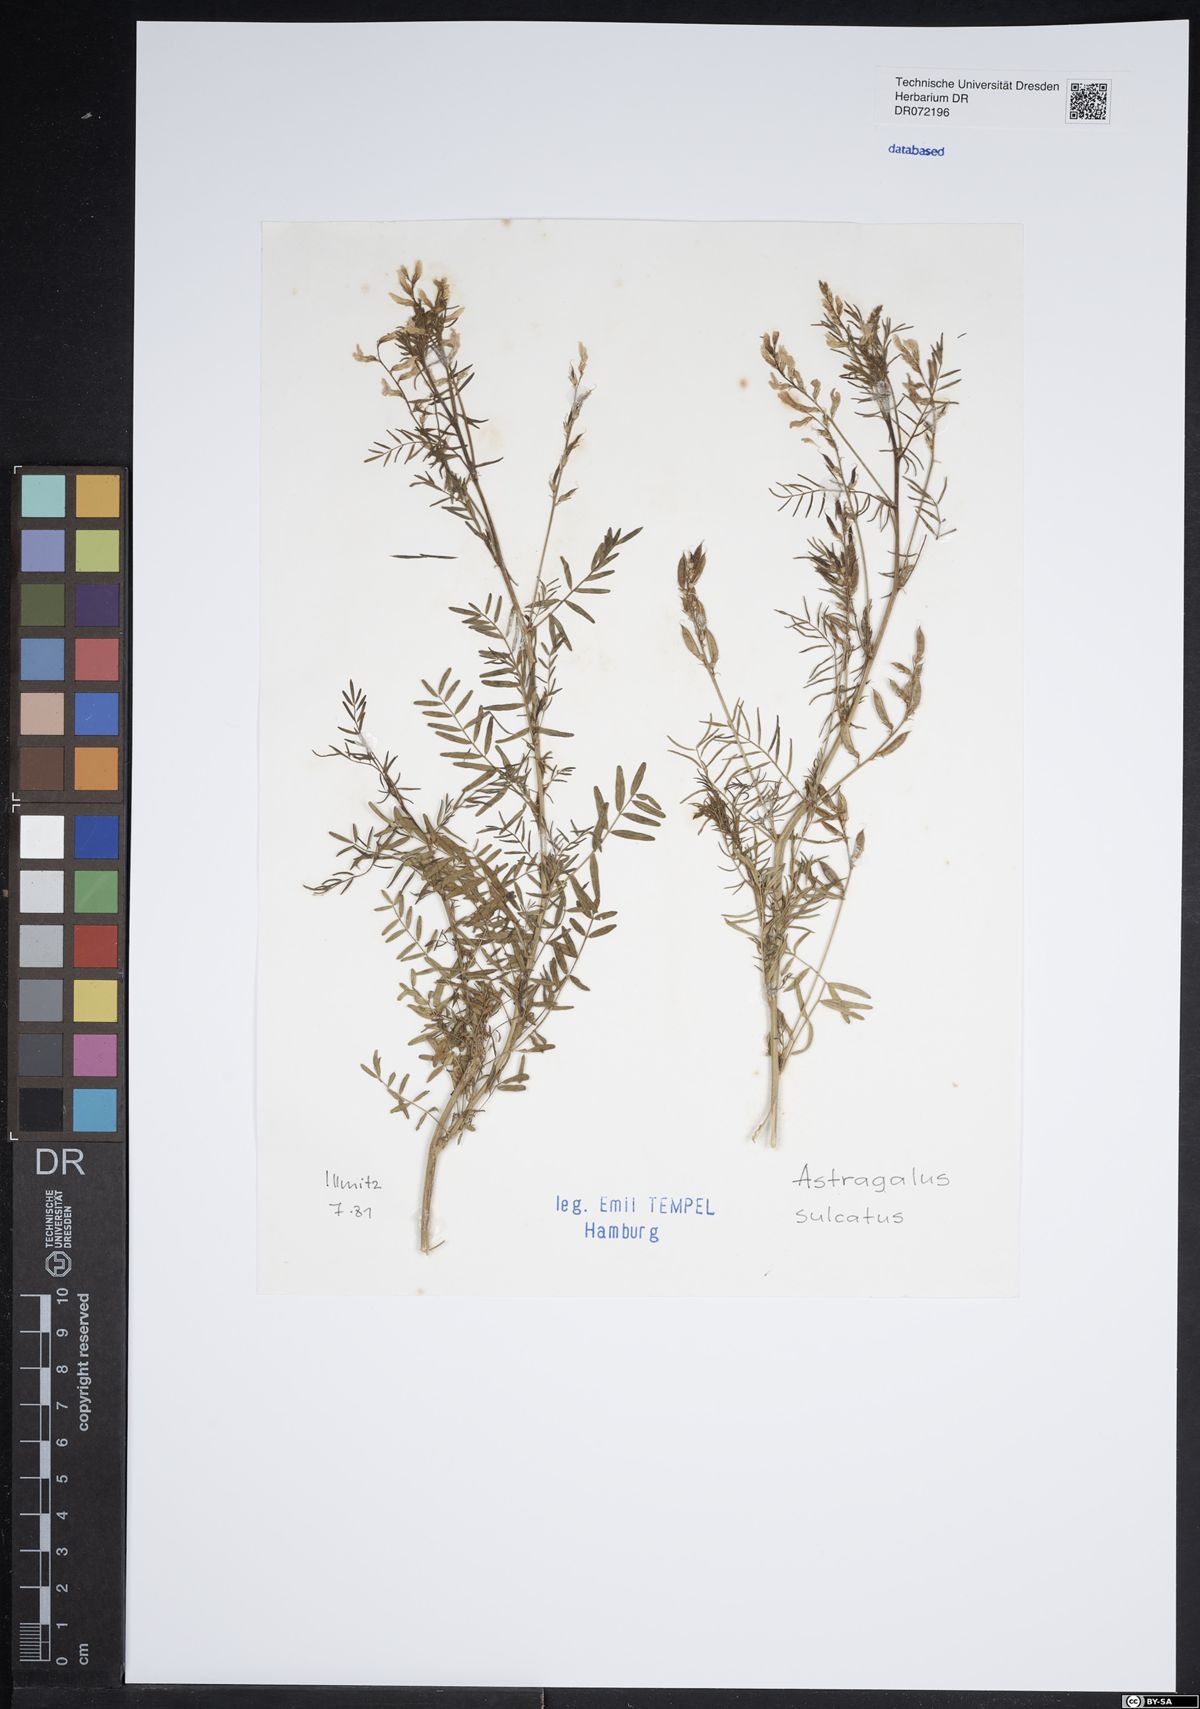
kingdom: Plantae
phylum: Tracheophyta
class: Magnoliopsida
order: Fabales
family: Fabaceae
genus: Astragalus
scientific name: Astragalus sulcatus
